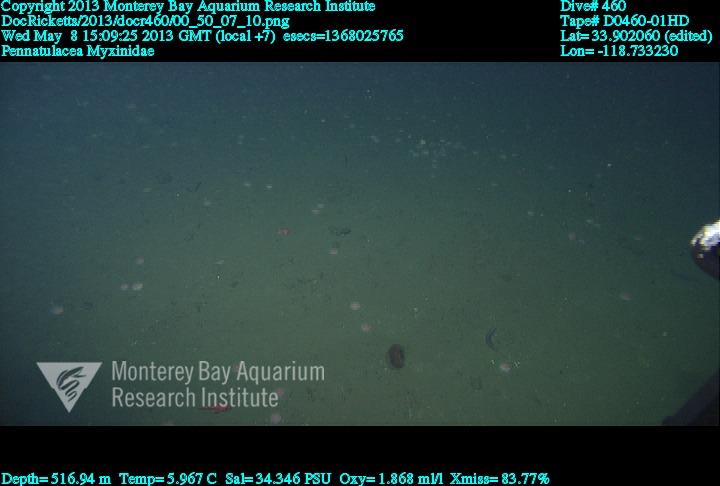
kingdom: Animalia
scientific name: Animalia
